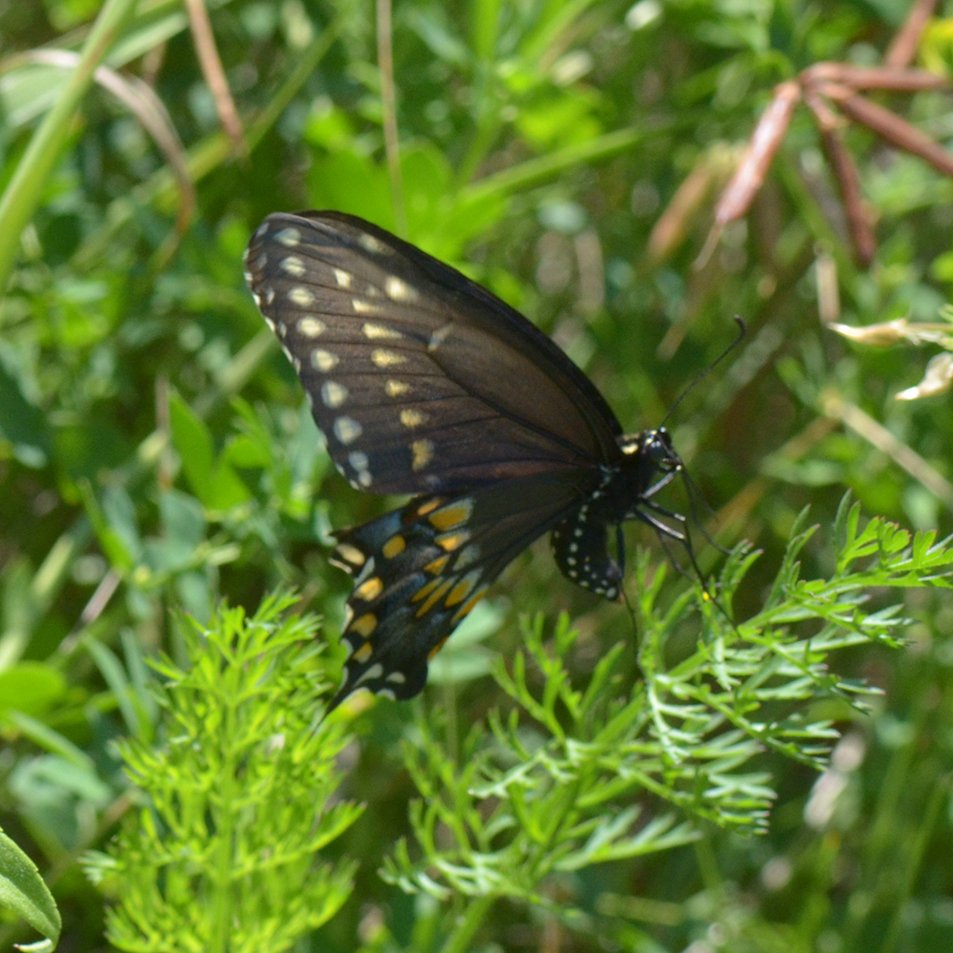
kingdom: Animalia
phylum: Arthropoda
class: Insecta
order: Lepidoptera
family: Papilionidae
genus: Papilio
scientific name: Papilio polyxenes
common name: Black Swallowtail
